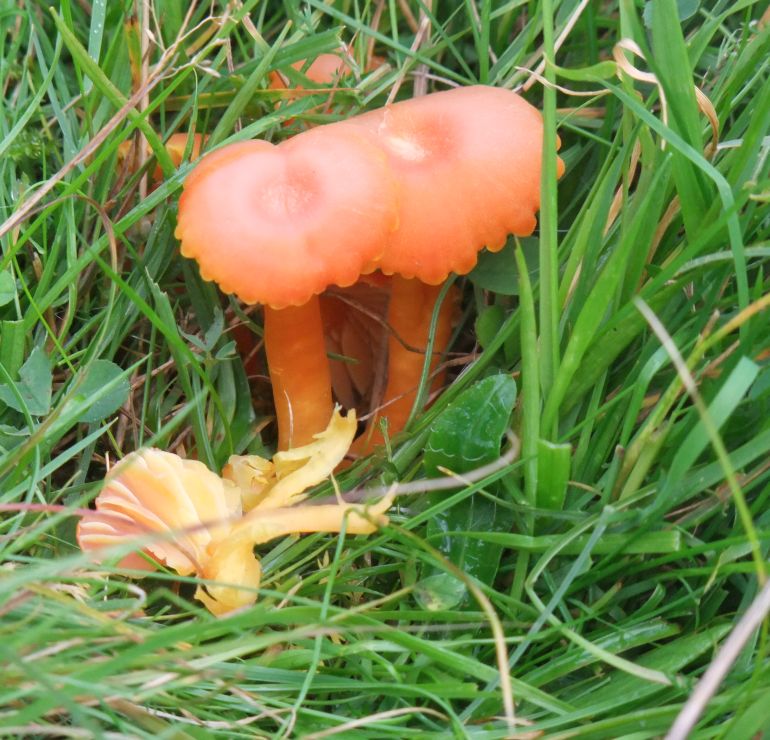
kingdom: Fungi
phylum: Basidiomycota
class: Agaricomycetes
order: Agaricales
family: Hygrophoraceae
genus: Hygrocybe
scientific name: Hygrocybe reidii
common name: honning-vokshat
